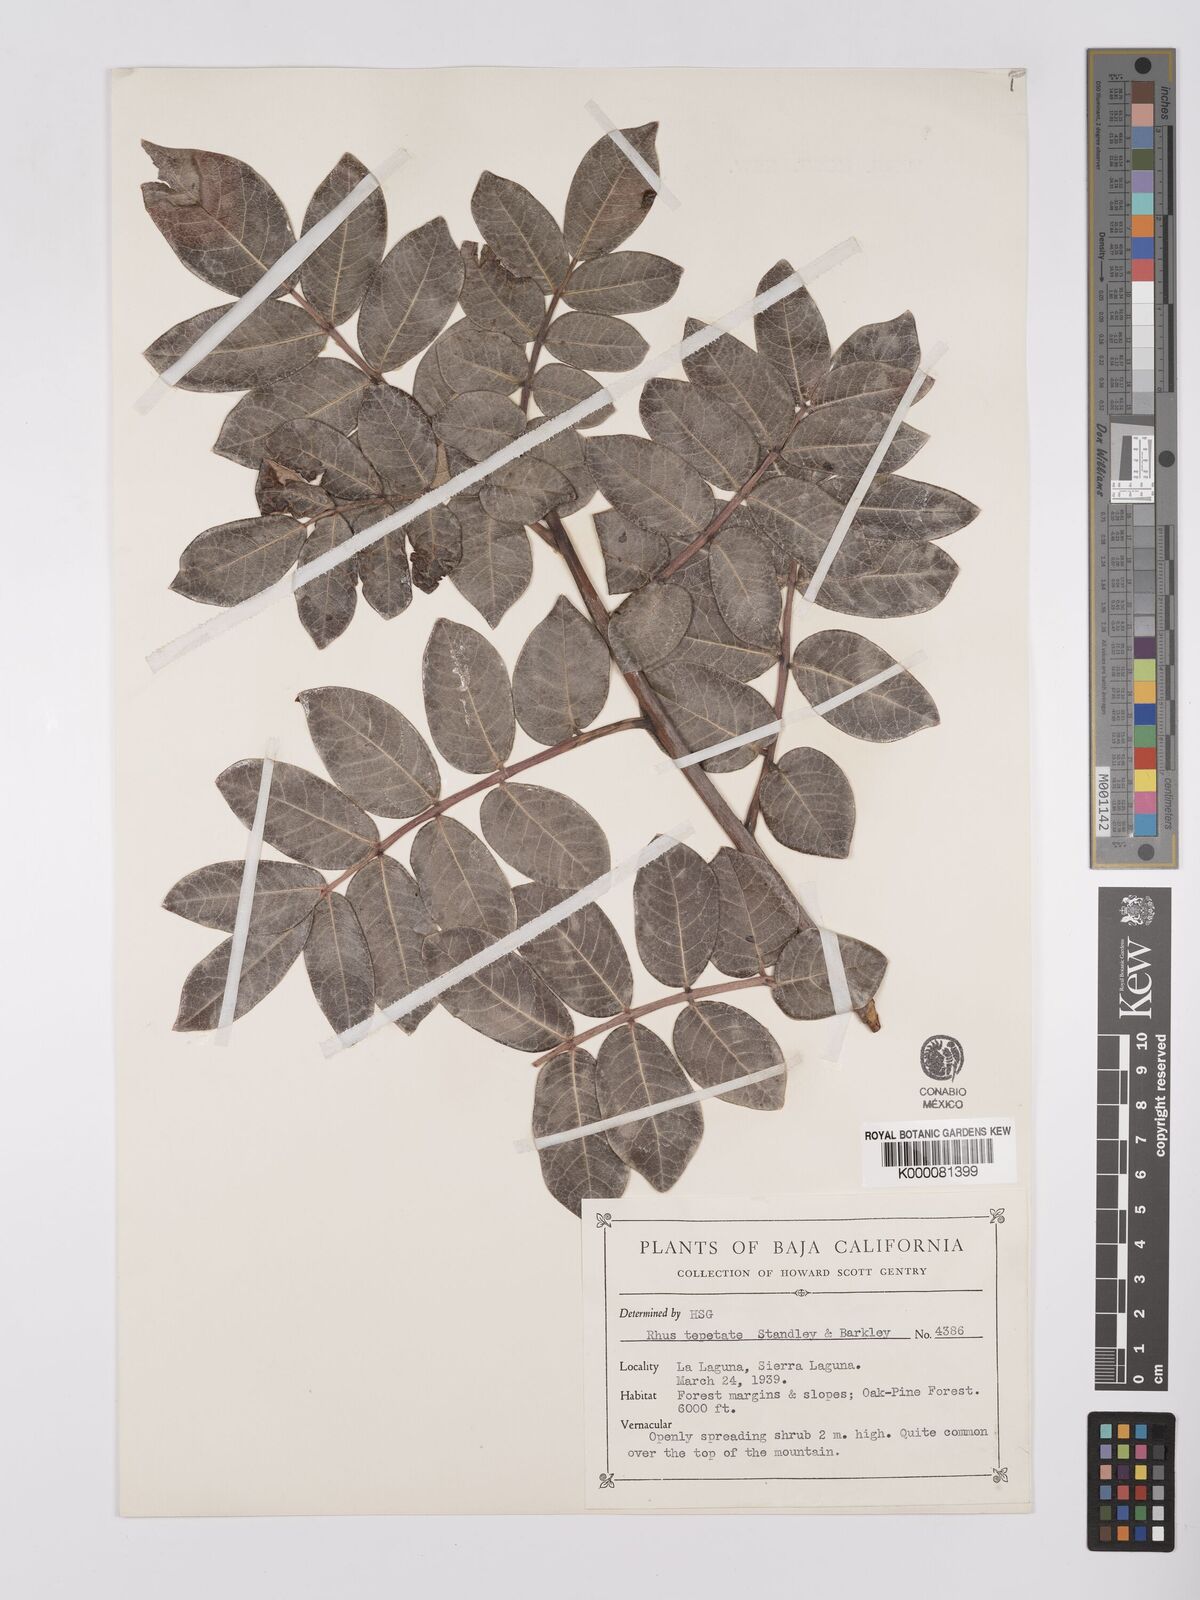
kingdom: Plantae
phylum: Tracheophyta
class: Magnoliopsida
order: Sapindales
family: Anacardiaceae
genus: Rhus
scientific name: Rhus tepetate
